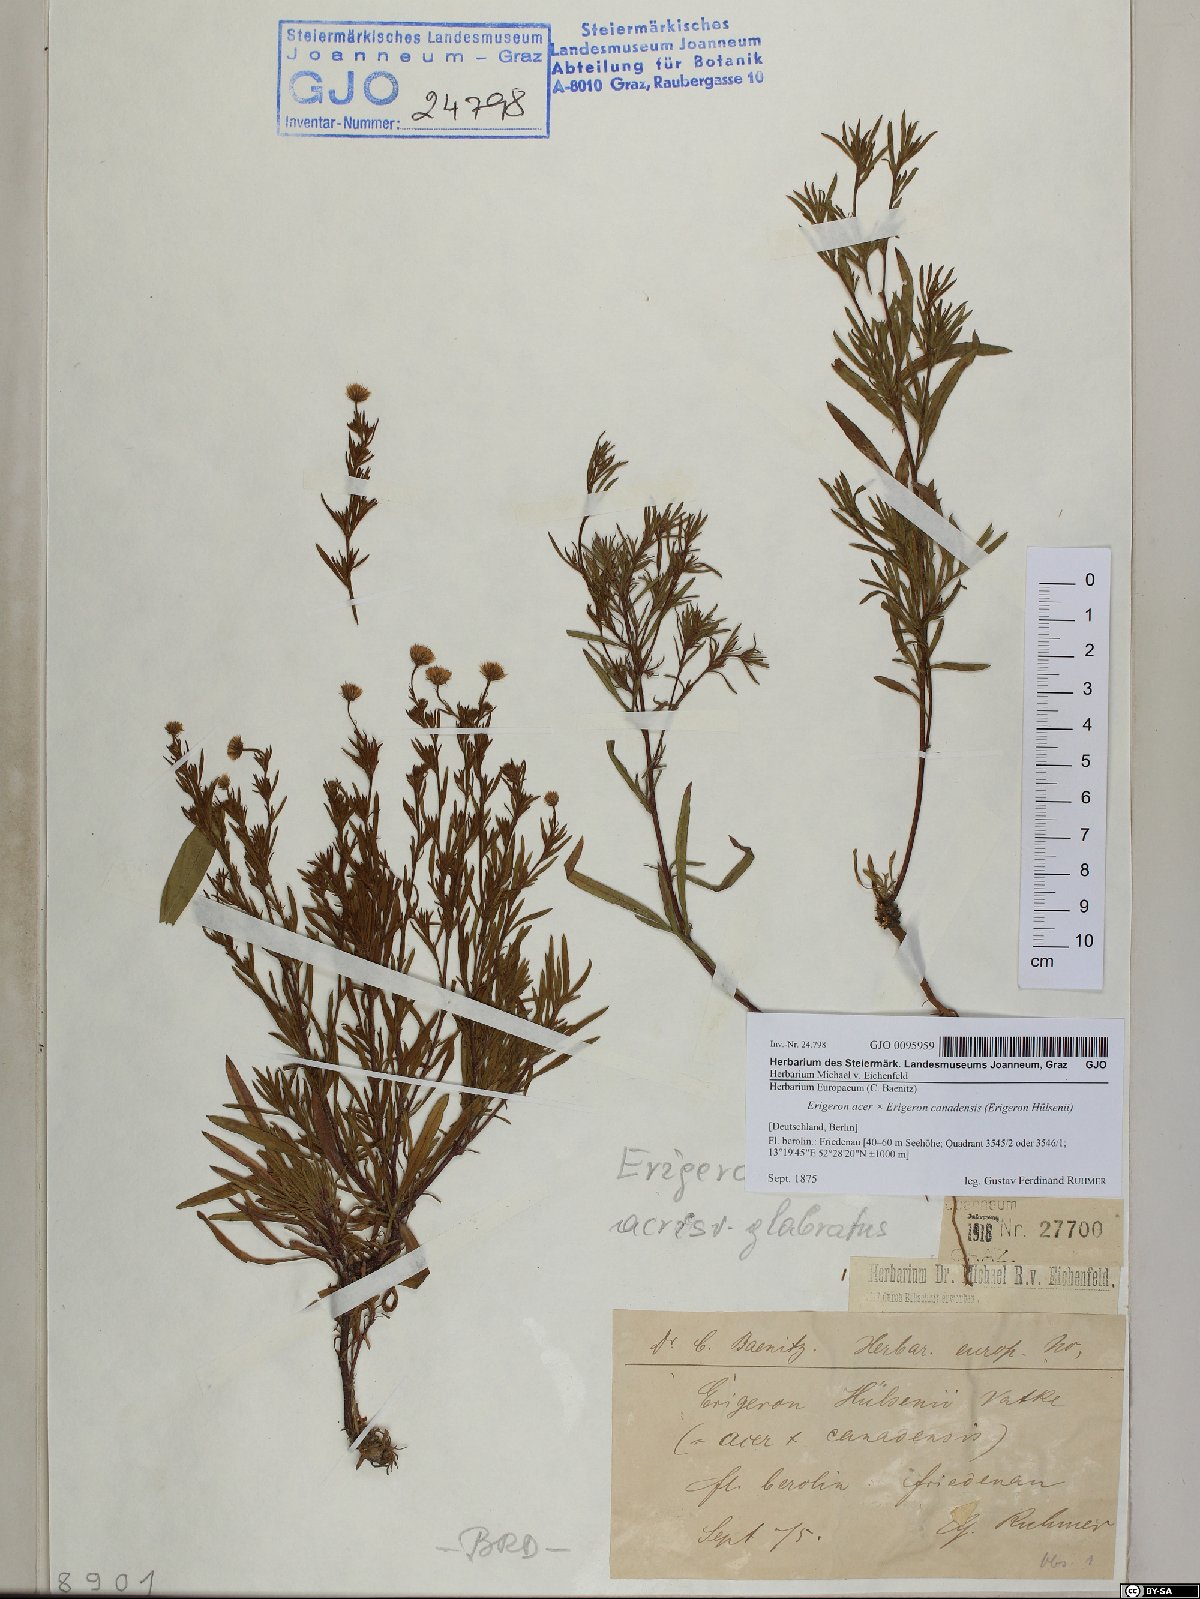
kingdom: Plantae
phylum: Tracheophyta
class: Magnoliopsida
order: Asterales
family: Asteraceae
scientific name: Asteraceae
